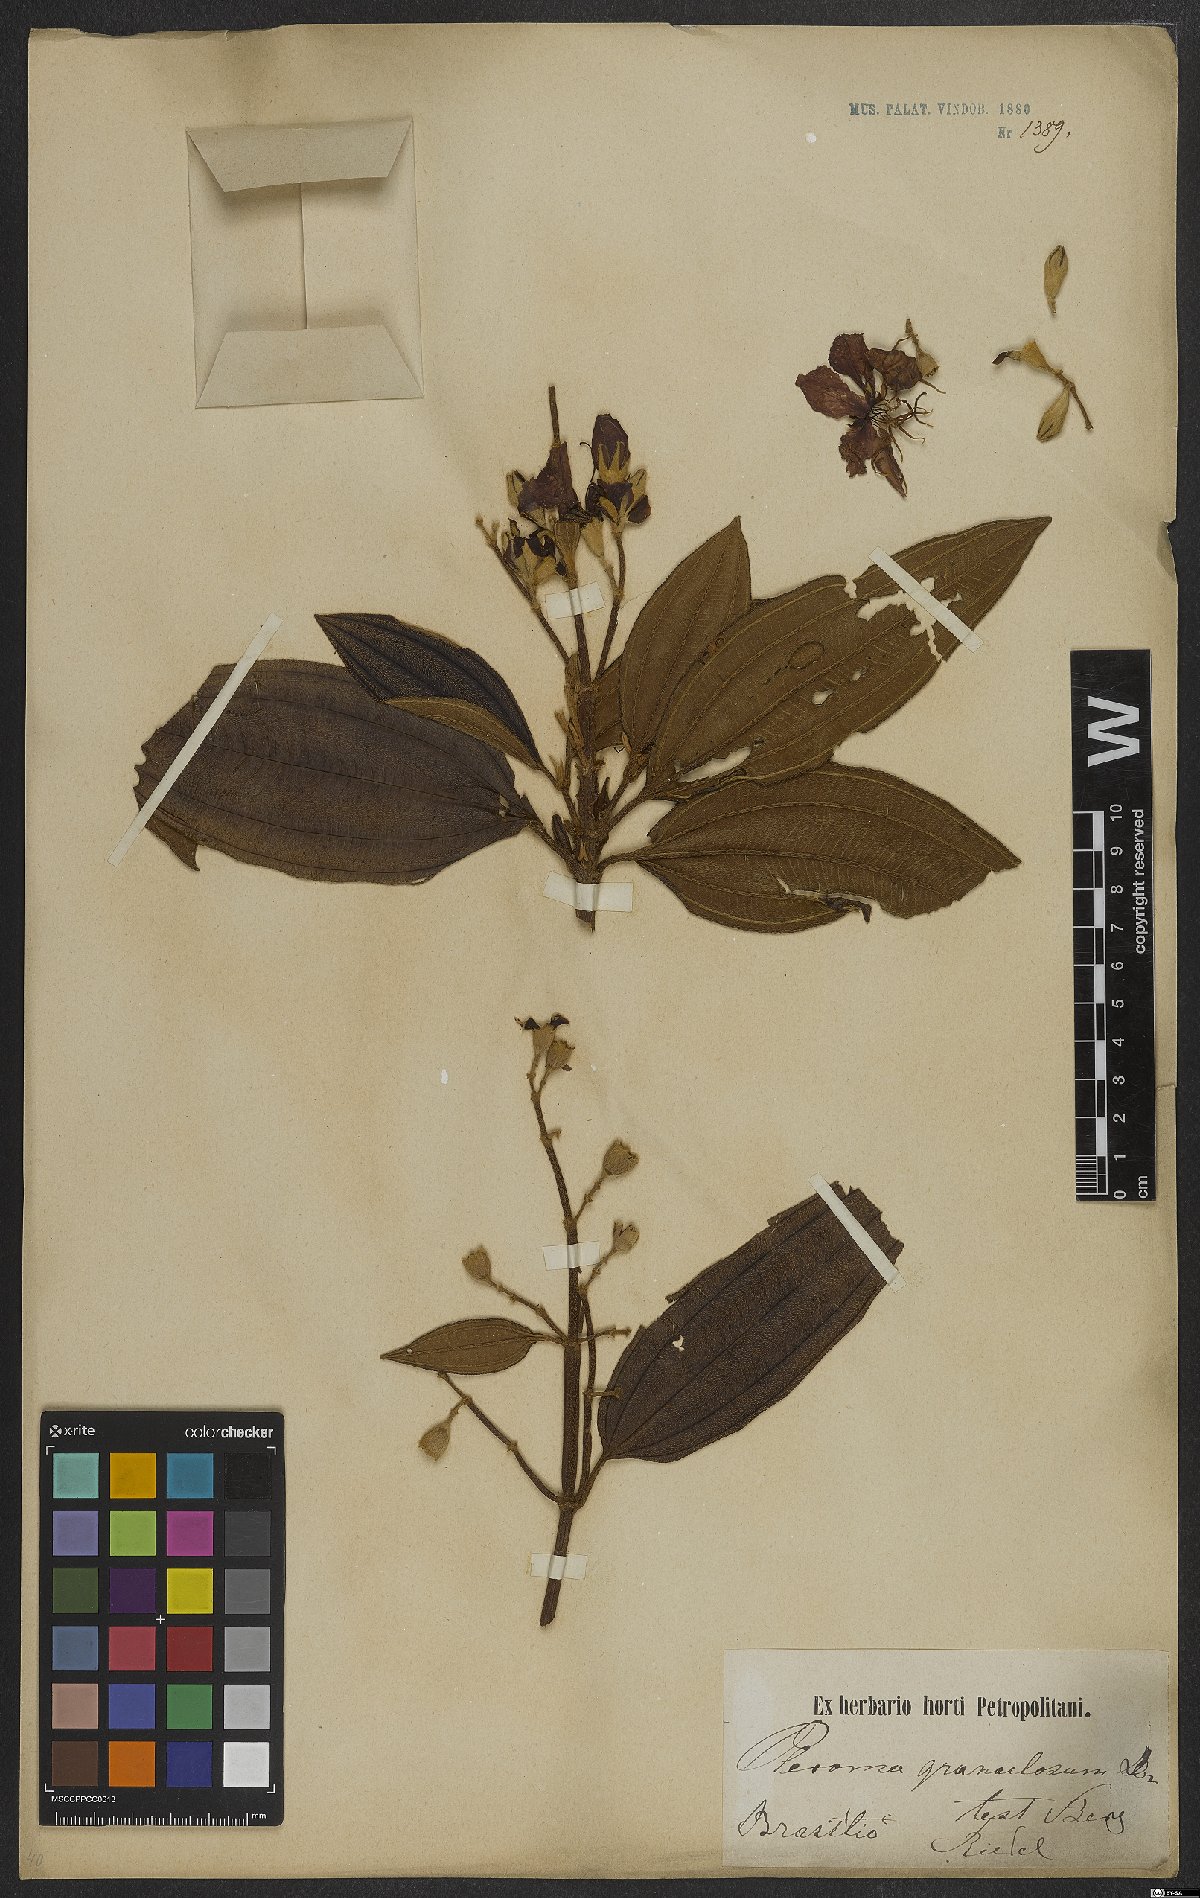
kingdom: Plantae
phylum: Tracheophyta
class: Magnoliopsida
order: Myrtales
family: Melastomataceae
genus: Pleroma
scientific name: Pleroma granulosum
